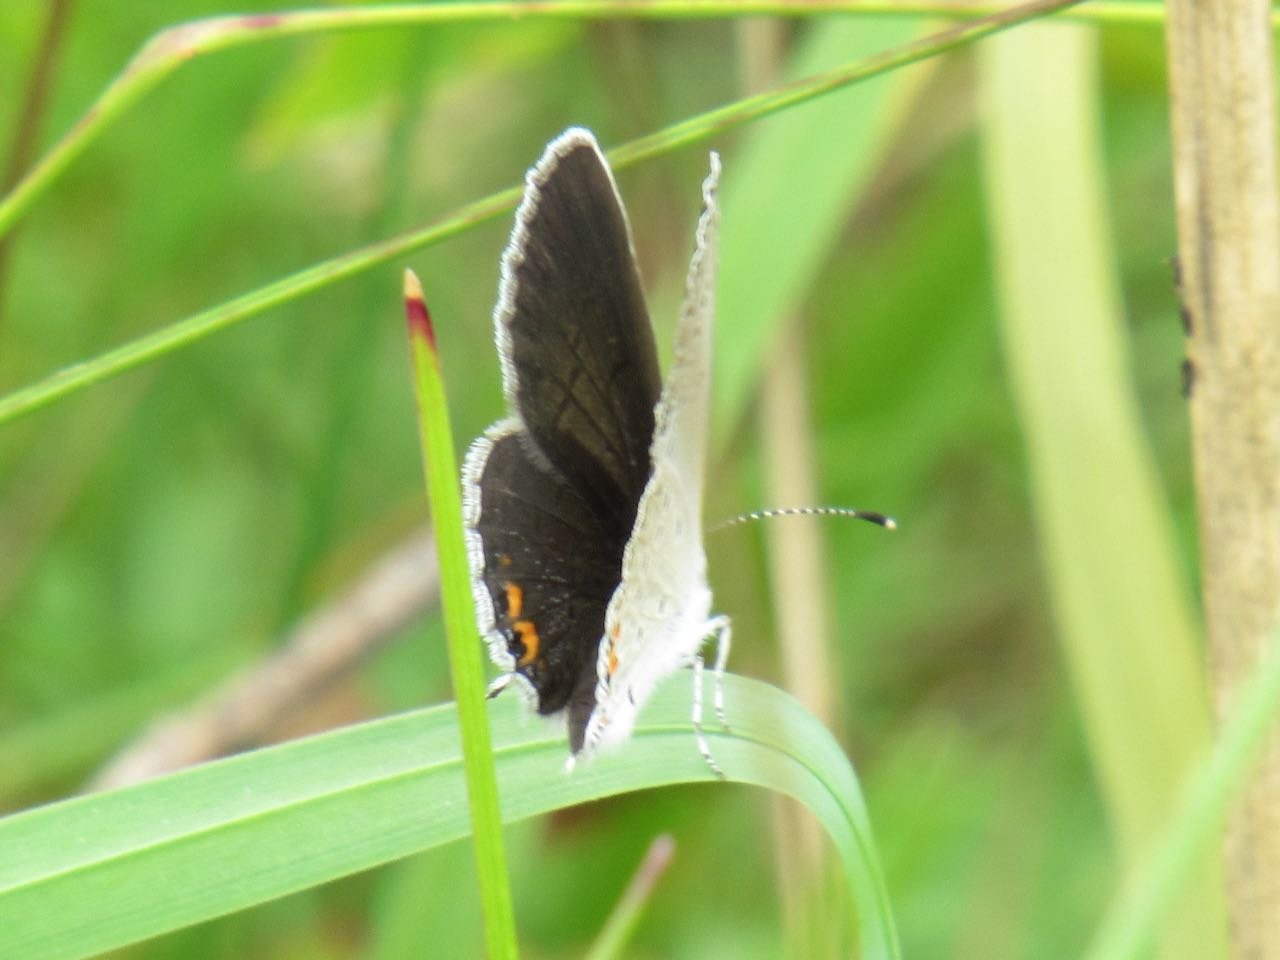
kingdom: Animalia
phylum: Arthropoda
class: Insecta
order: Lepidoptera
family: Lycaenidae
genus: Elkalyce
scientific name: Elkalyce comyntas
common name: Eastern Tailed-Blue
